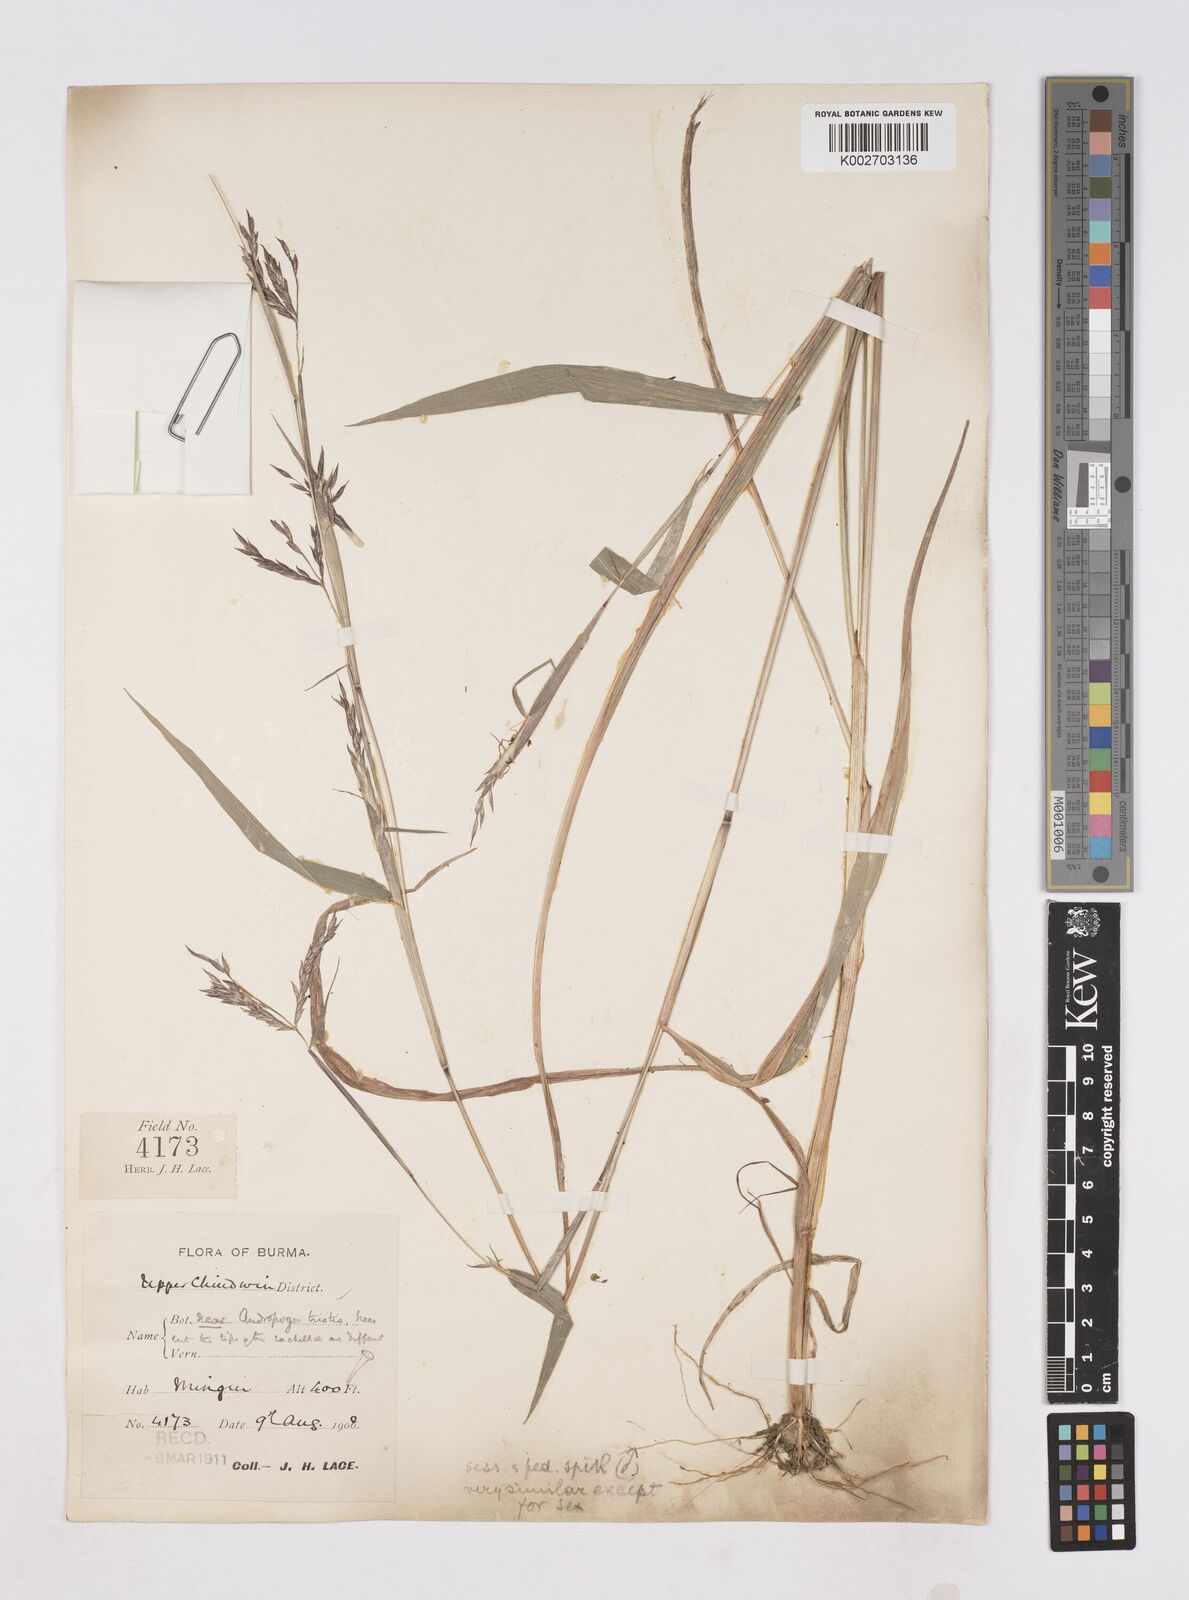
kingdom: Plantae
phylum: Tracheophyta
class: Liliopsida
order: Poales
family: Poaceae
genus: Polytoca
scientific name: Polytoca digitata
